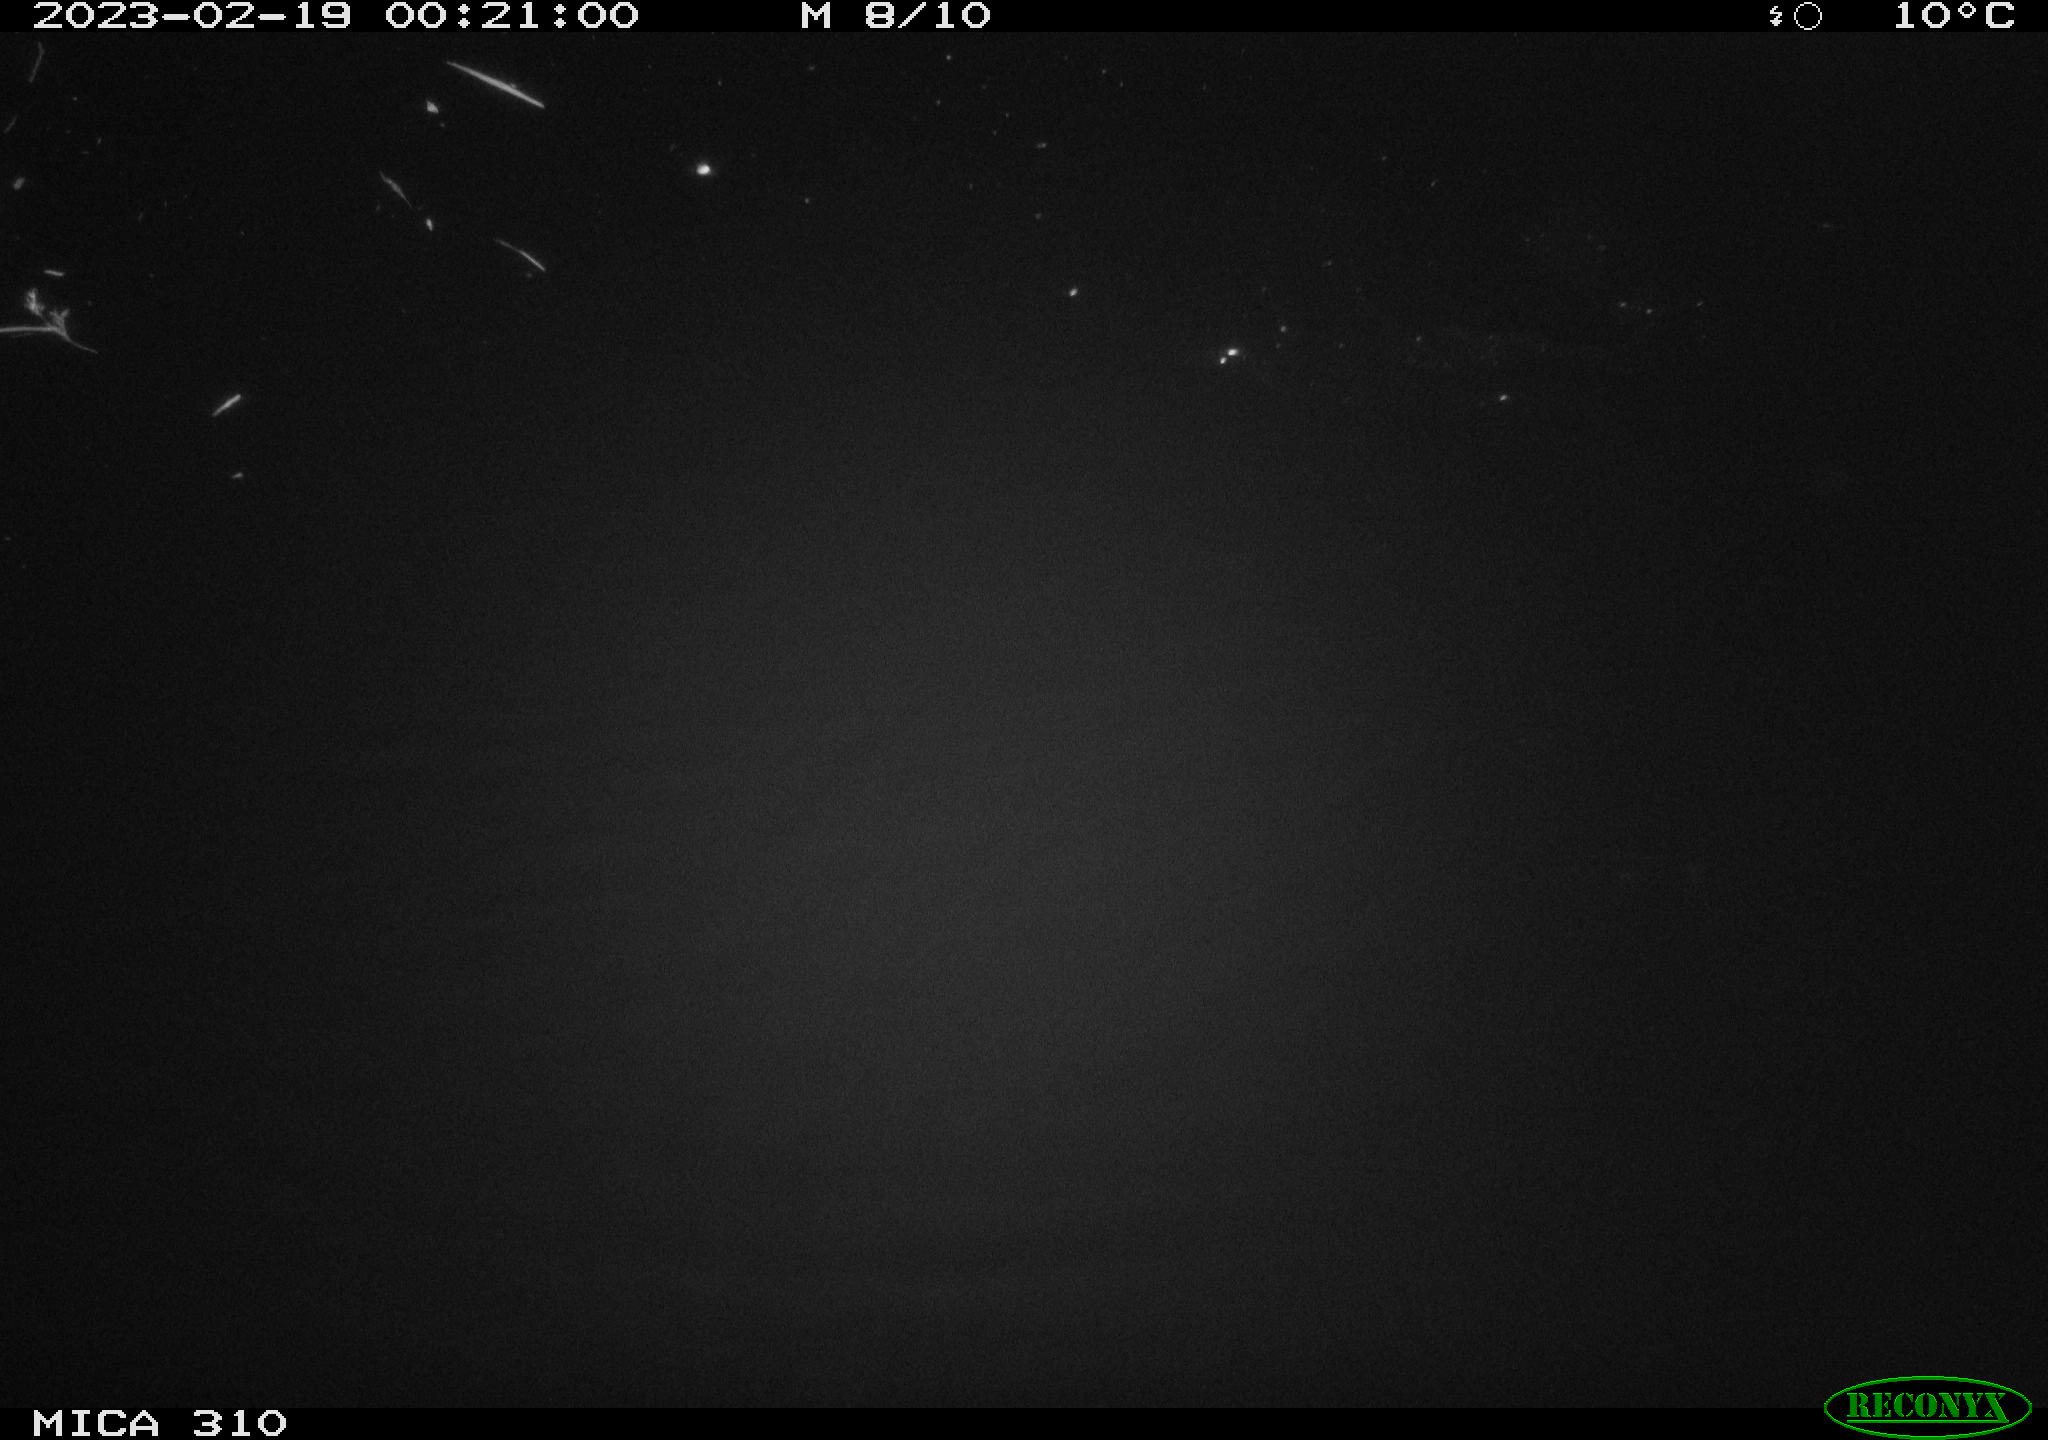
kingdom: Animalia
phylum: Chordata
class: Aves
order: Anseriformes
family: Anatidae
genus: Anas
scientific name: Anas
